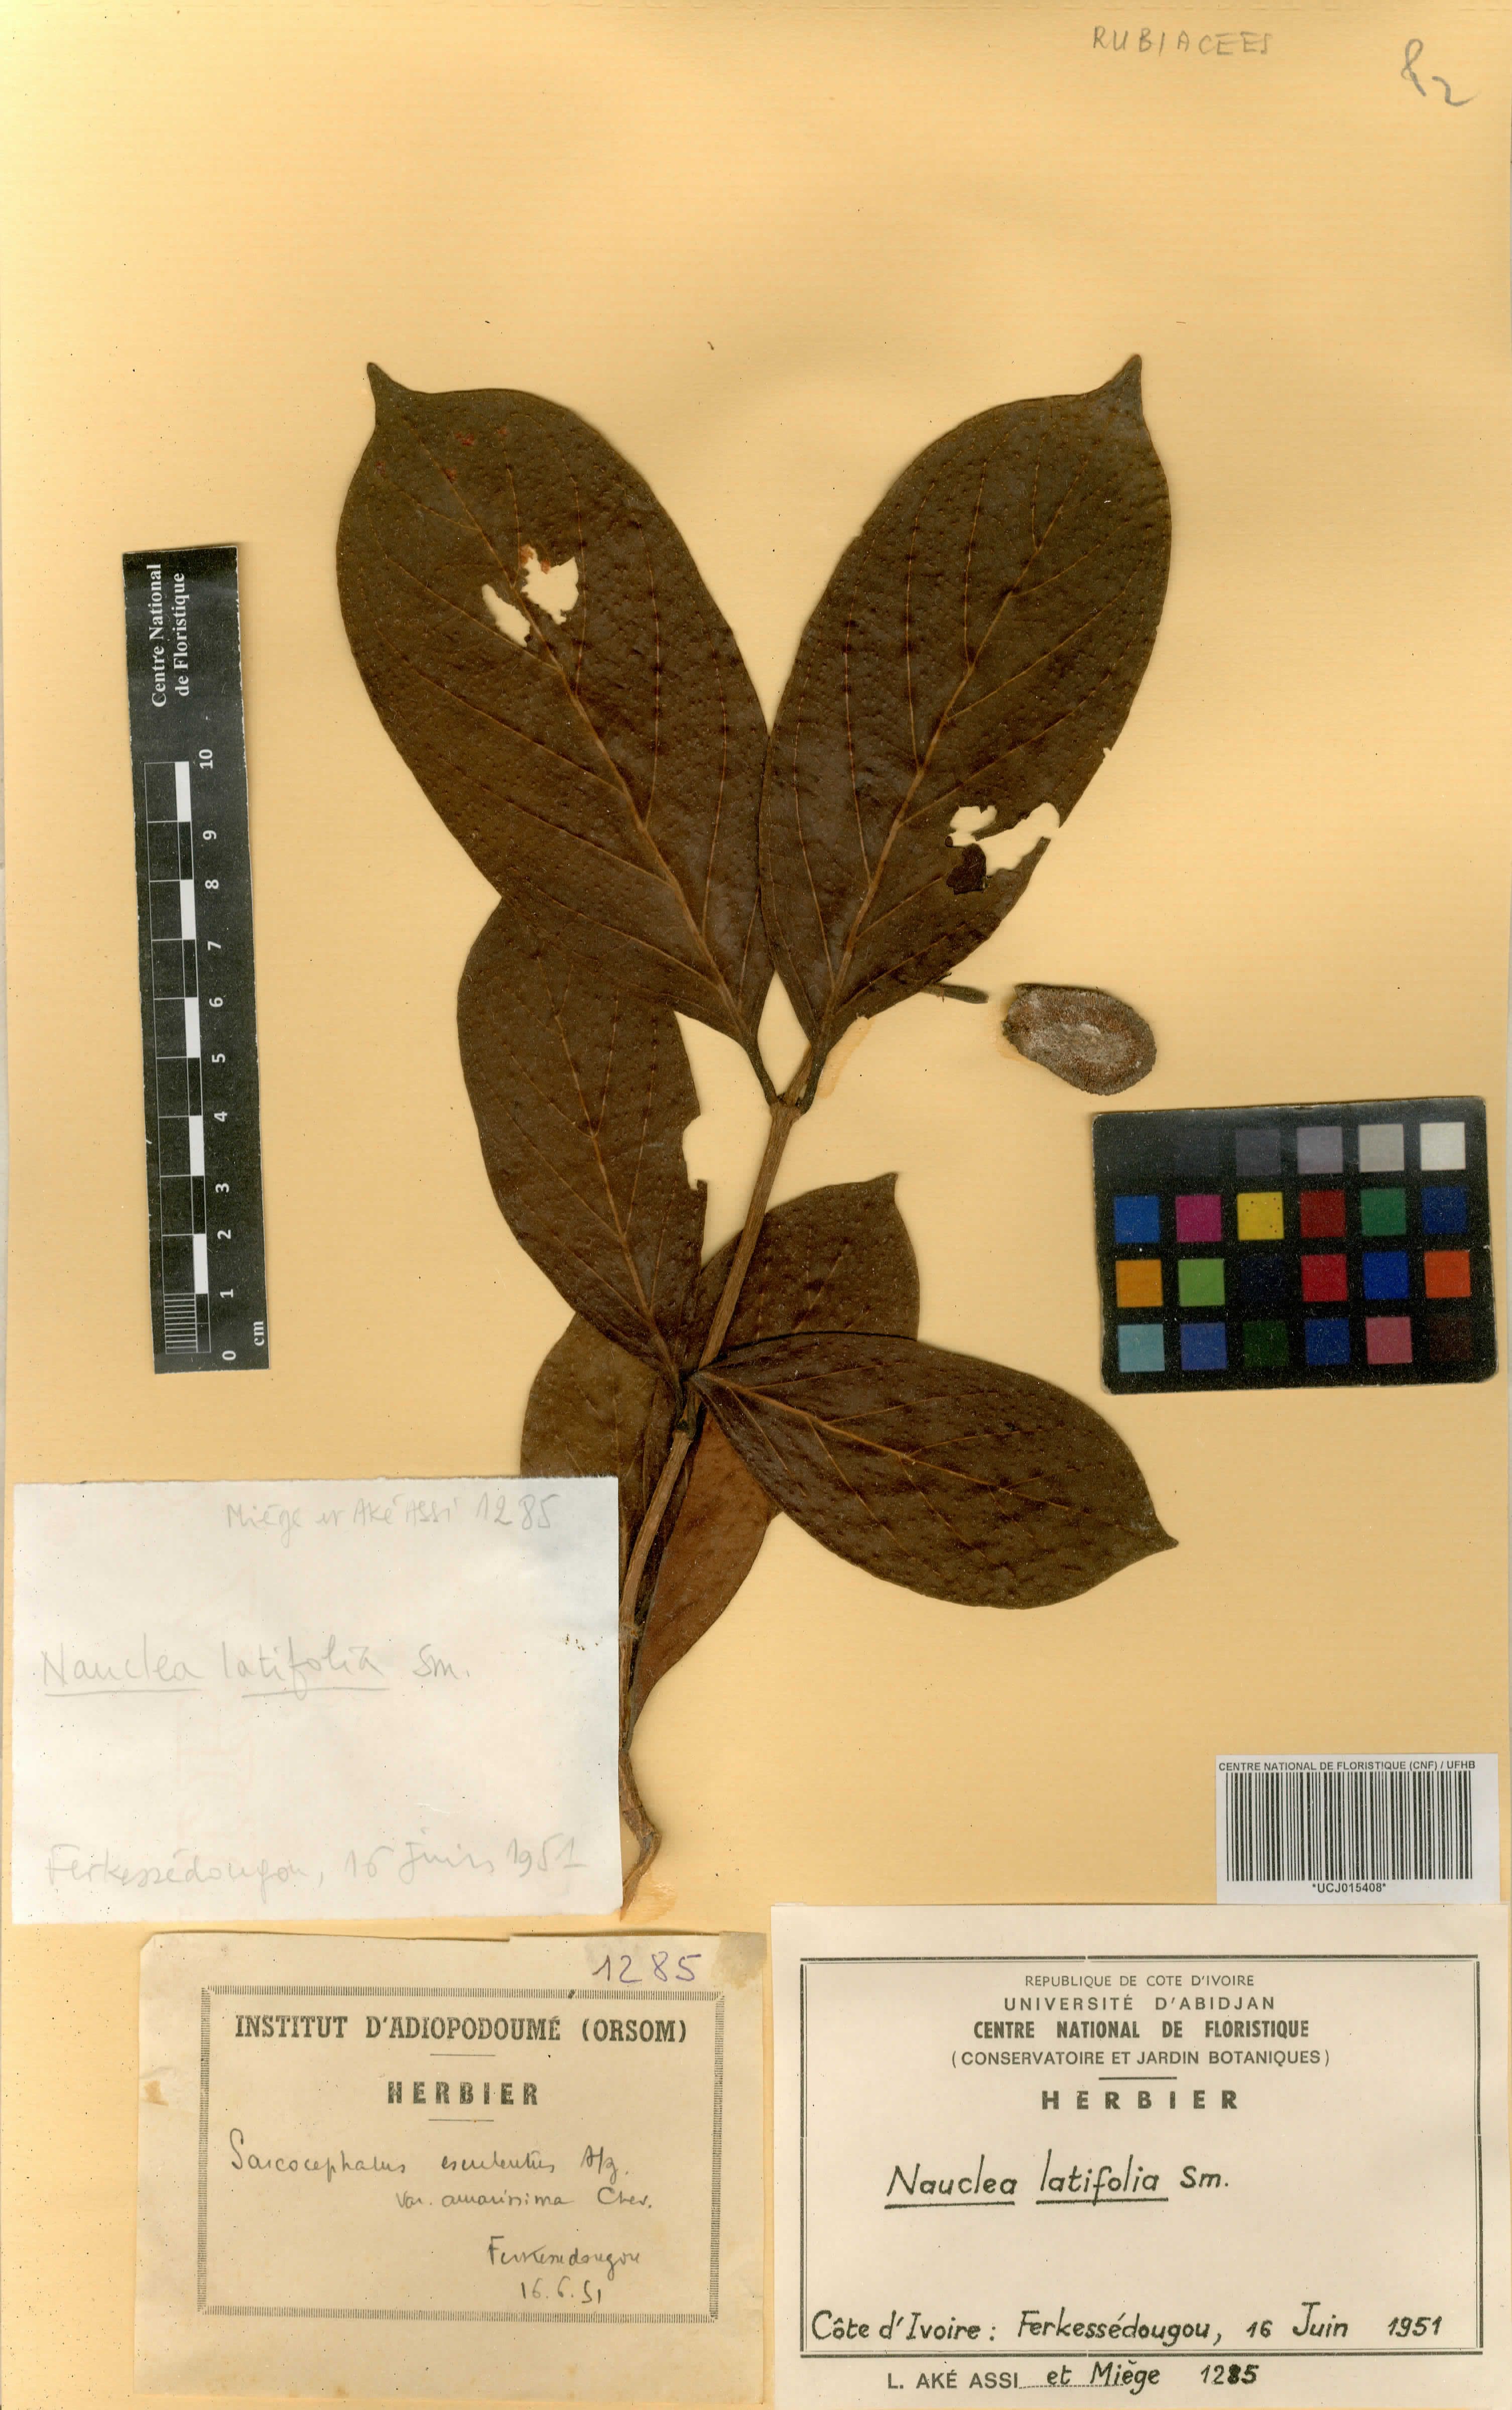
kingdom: Plantae
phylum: Tracheophyta
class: Magnoliopsida
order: Gentianales
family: Rubiaceae
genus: Nauclea
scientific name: Nauclea latifolia
